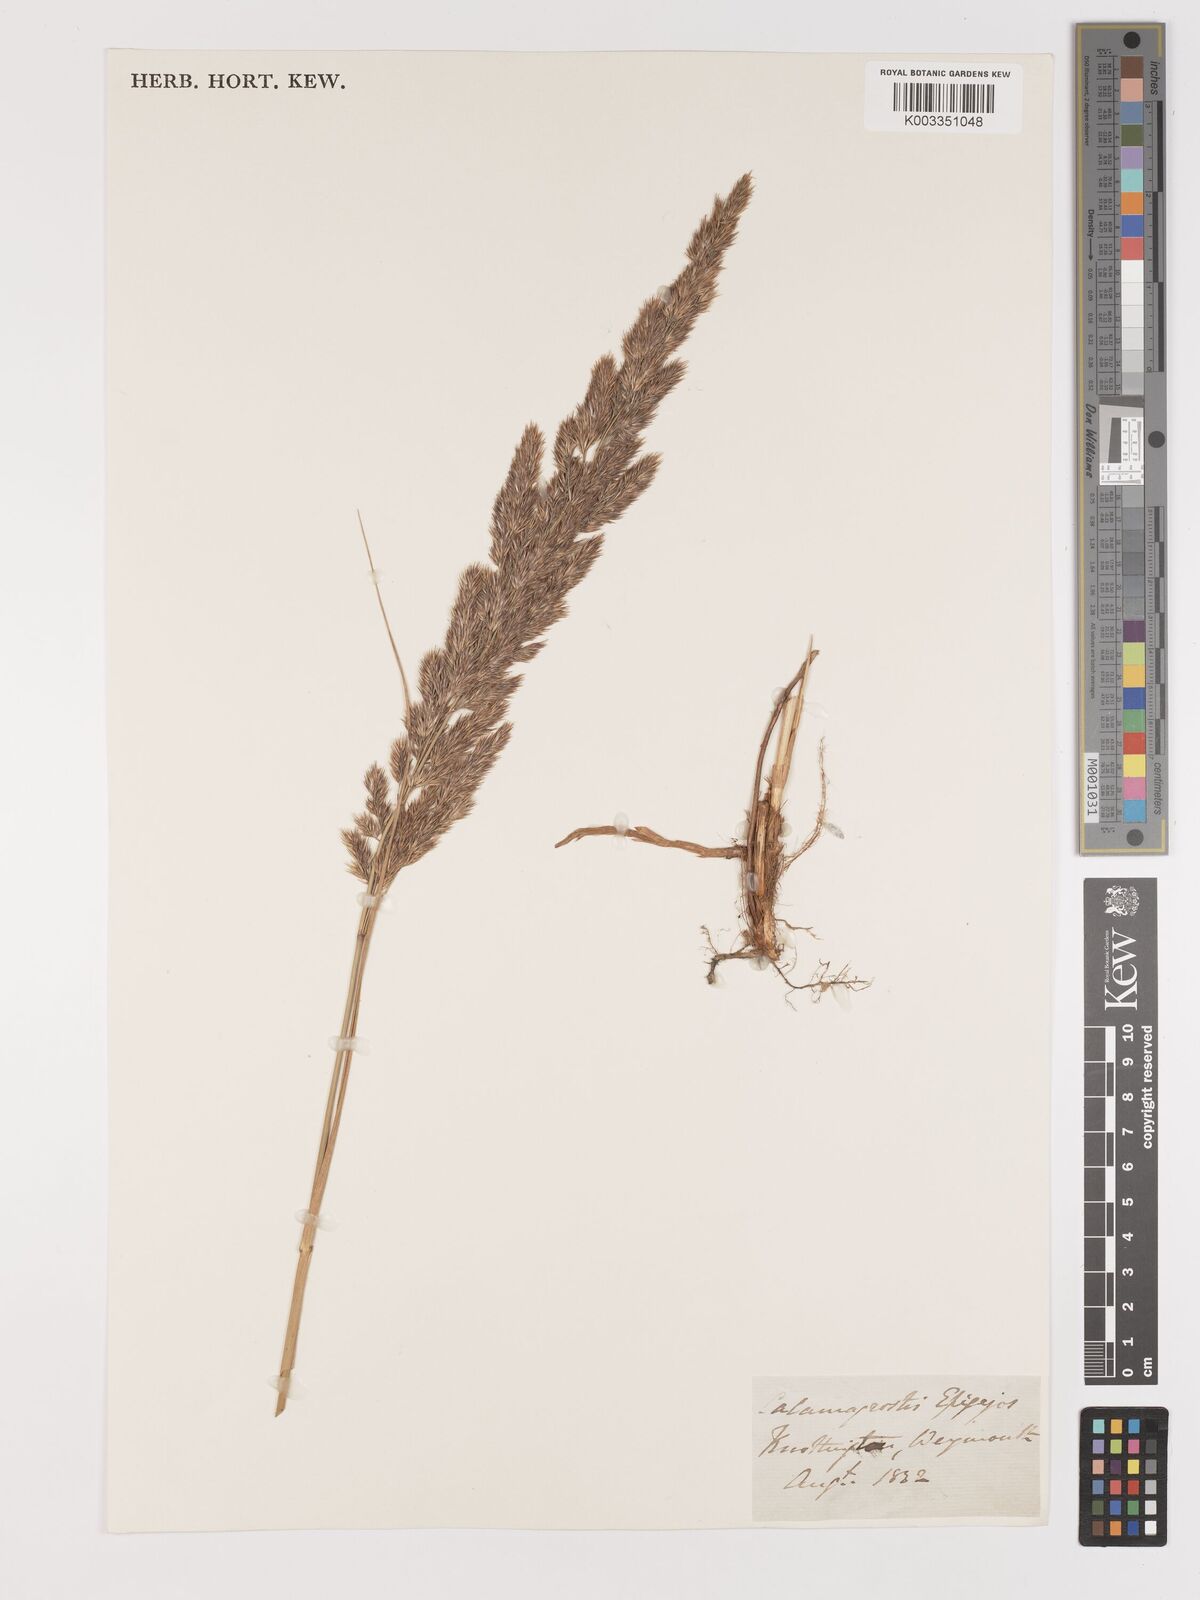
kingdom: Plantae
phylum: Tracheophyta
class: Liliopsida
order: Poales
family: Poaceae
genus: Calamagrostis
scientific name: Calamagrostis epigejos
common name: Wood small-reed
